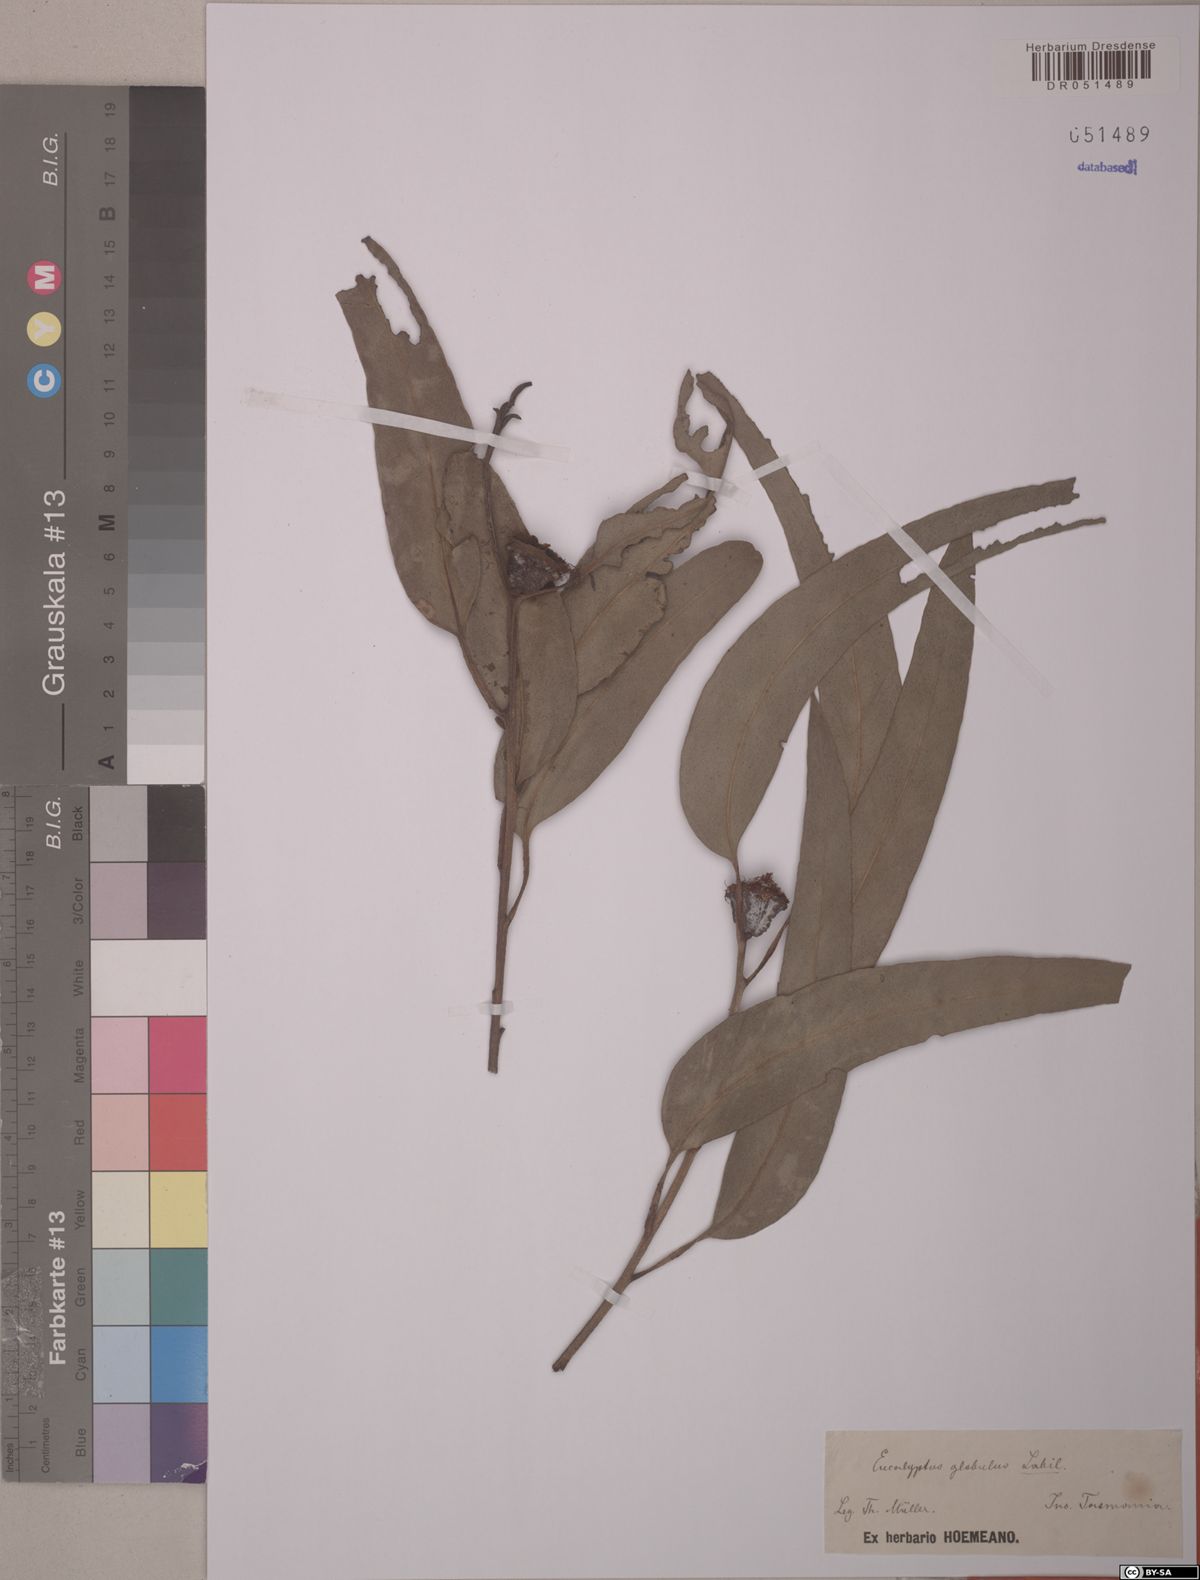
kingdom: Plantae
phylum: Tracheophyta
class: Magnoliopsida
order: Myrtales
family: Myrtaceae
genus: Eucalyptus
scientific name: Eucalyptus globulus
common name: Southern blue-gum
